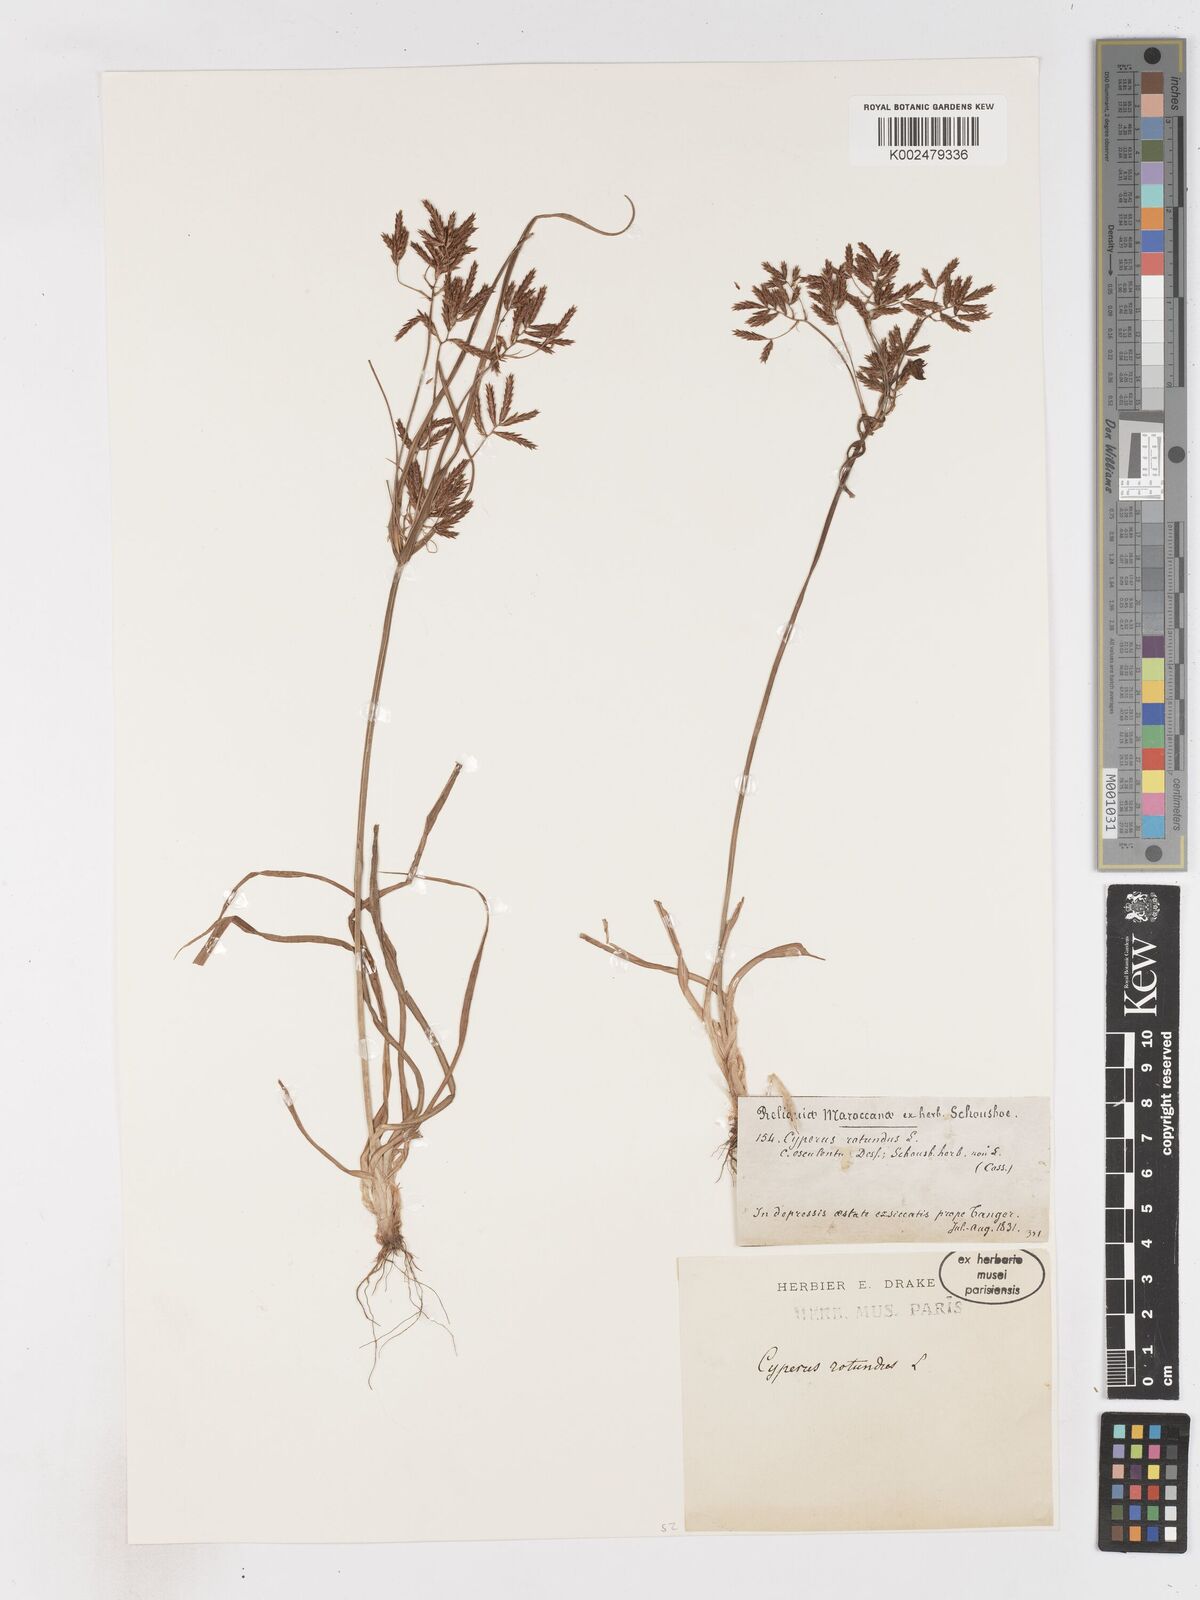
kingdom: Plantae
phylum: Tracheophyta
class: Liliopsida
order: Poales
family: Cyperaceae
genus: Cyperus
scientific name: Cyperus rotundus
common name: Nutgrass
